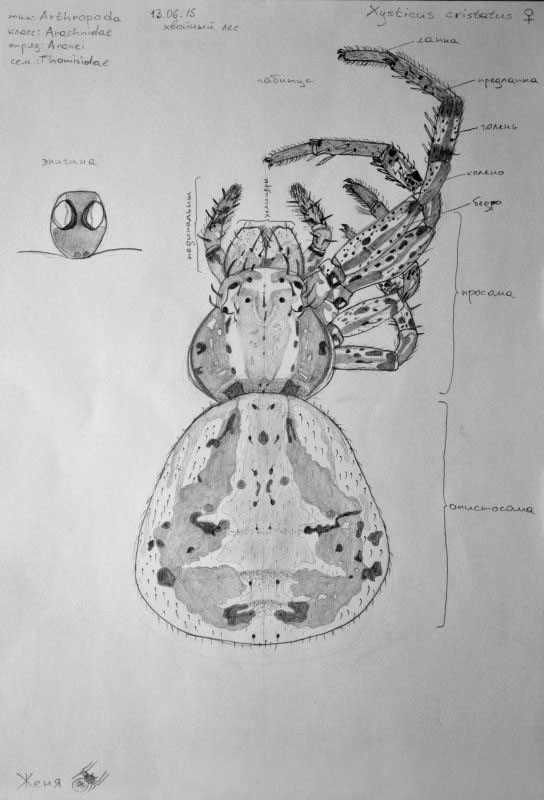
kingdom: Animalia
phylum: Arthropoda
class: Arachnida
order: Araneae
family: Thomisidae
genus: Xysticus
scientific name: Xysticus cristatus
